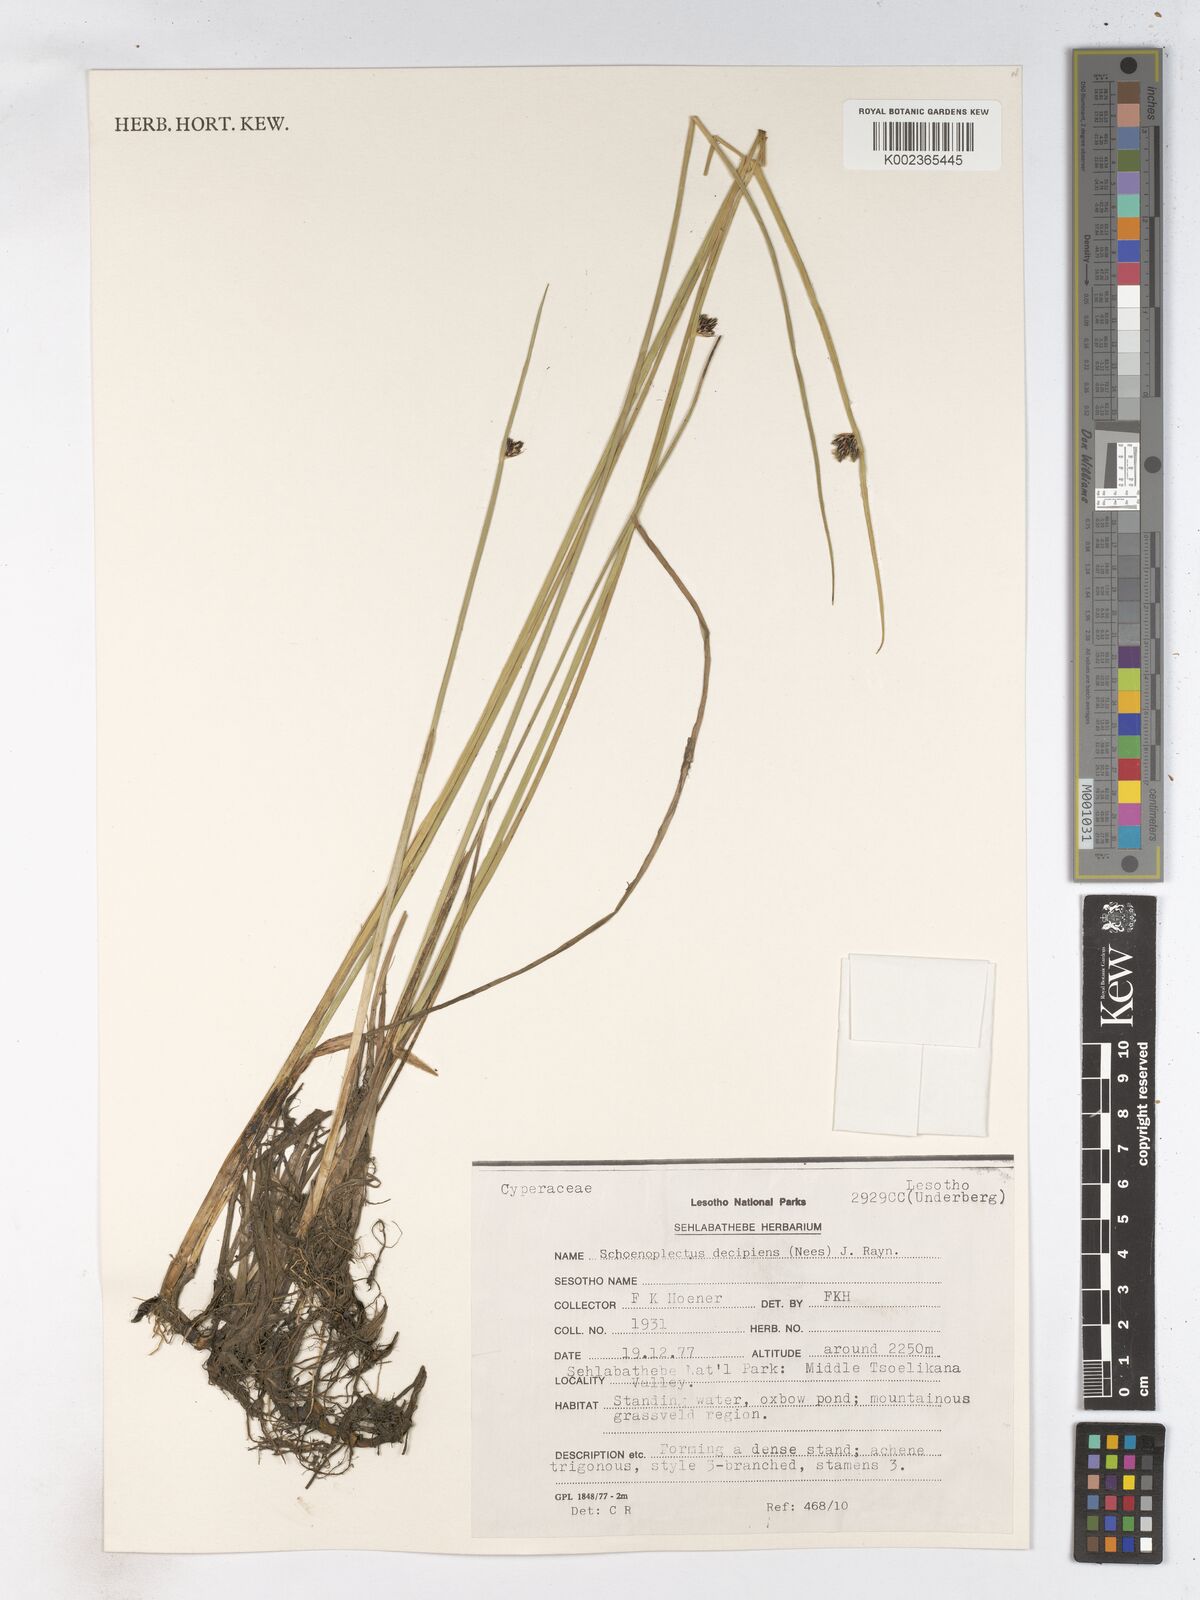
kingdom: Plantae
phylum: Tracheophyta
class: Liliopsida
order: Poales
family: Cyperaceae
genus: Schoenoplectiella
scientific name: Schoenoplectiella paludicola
